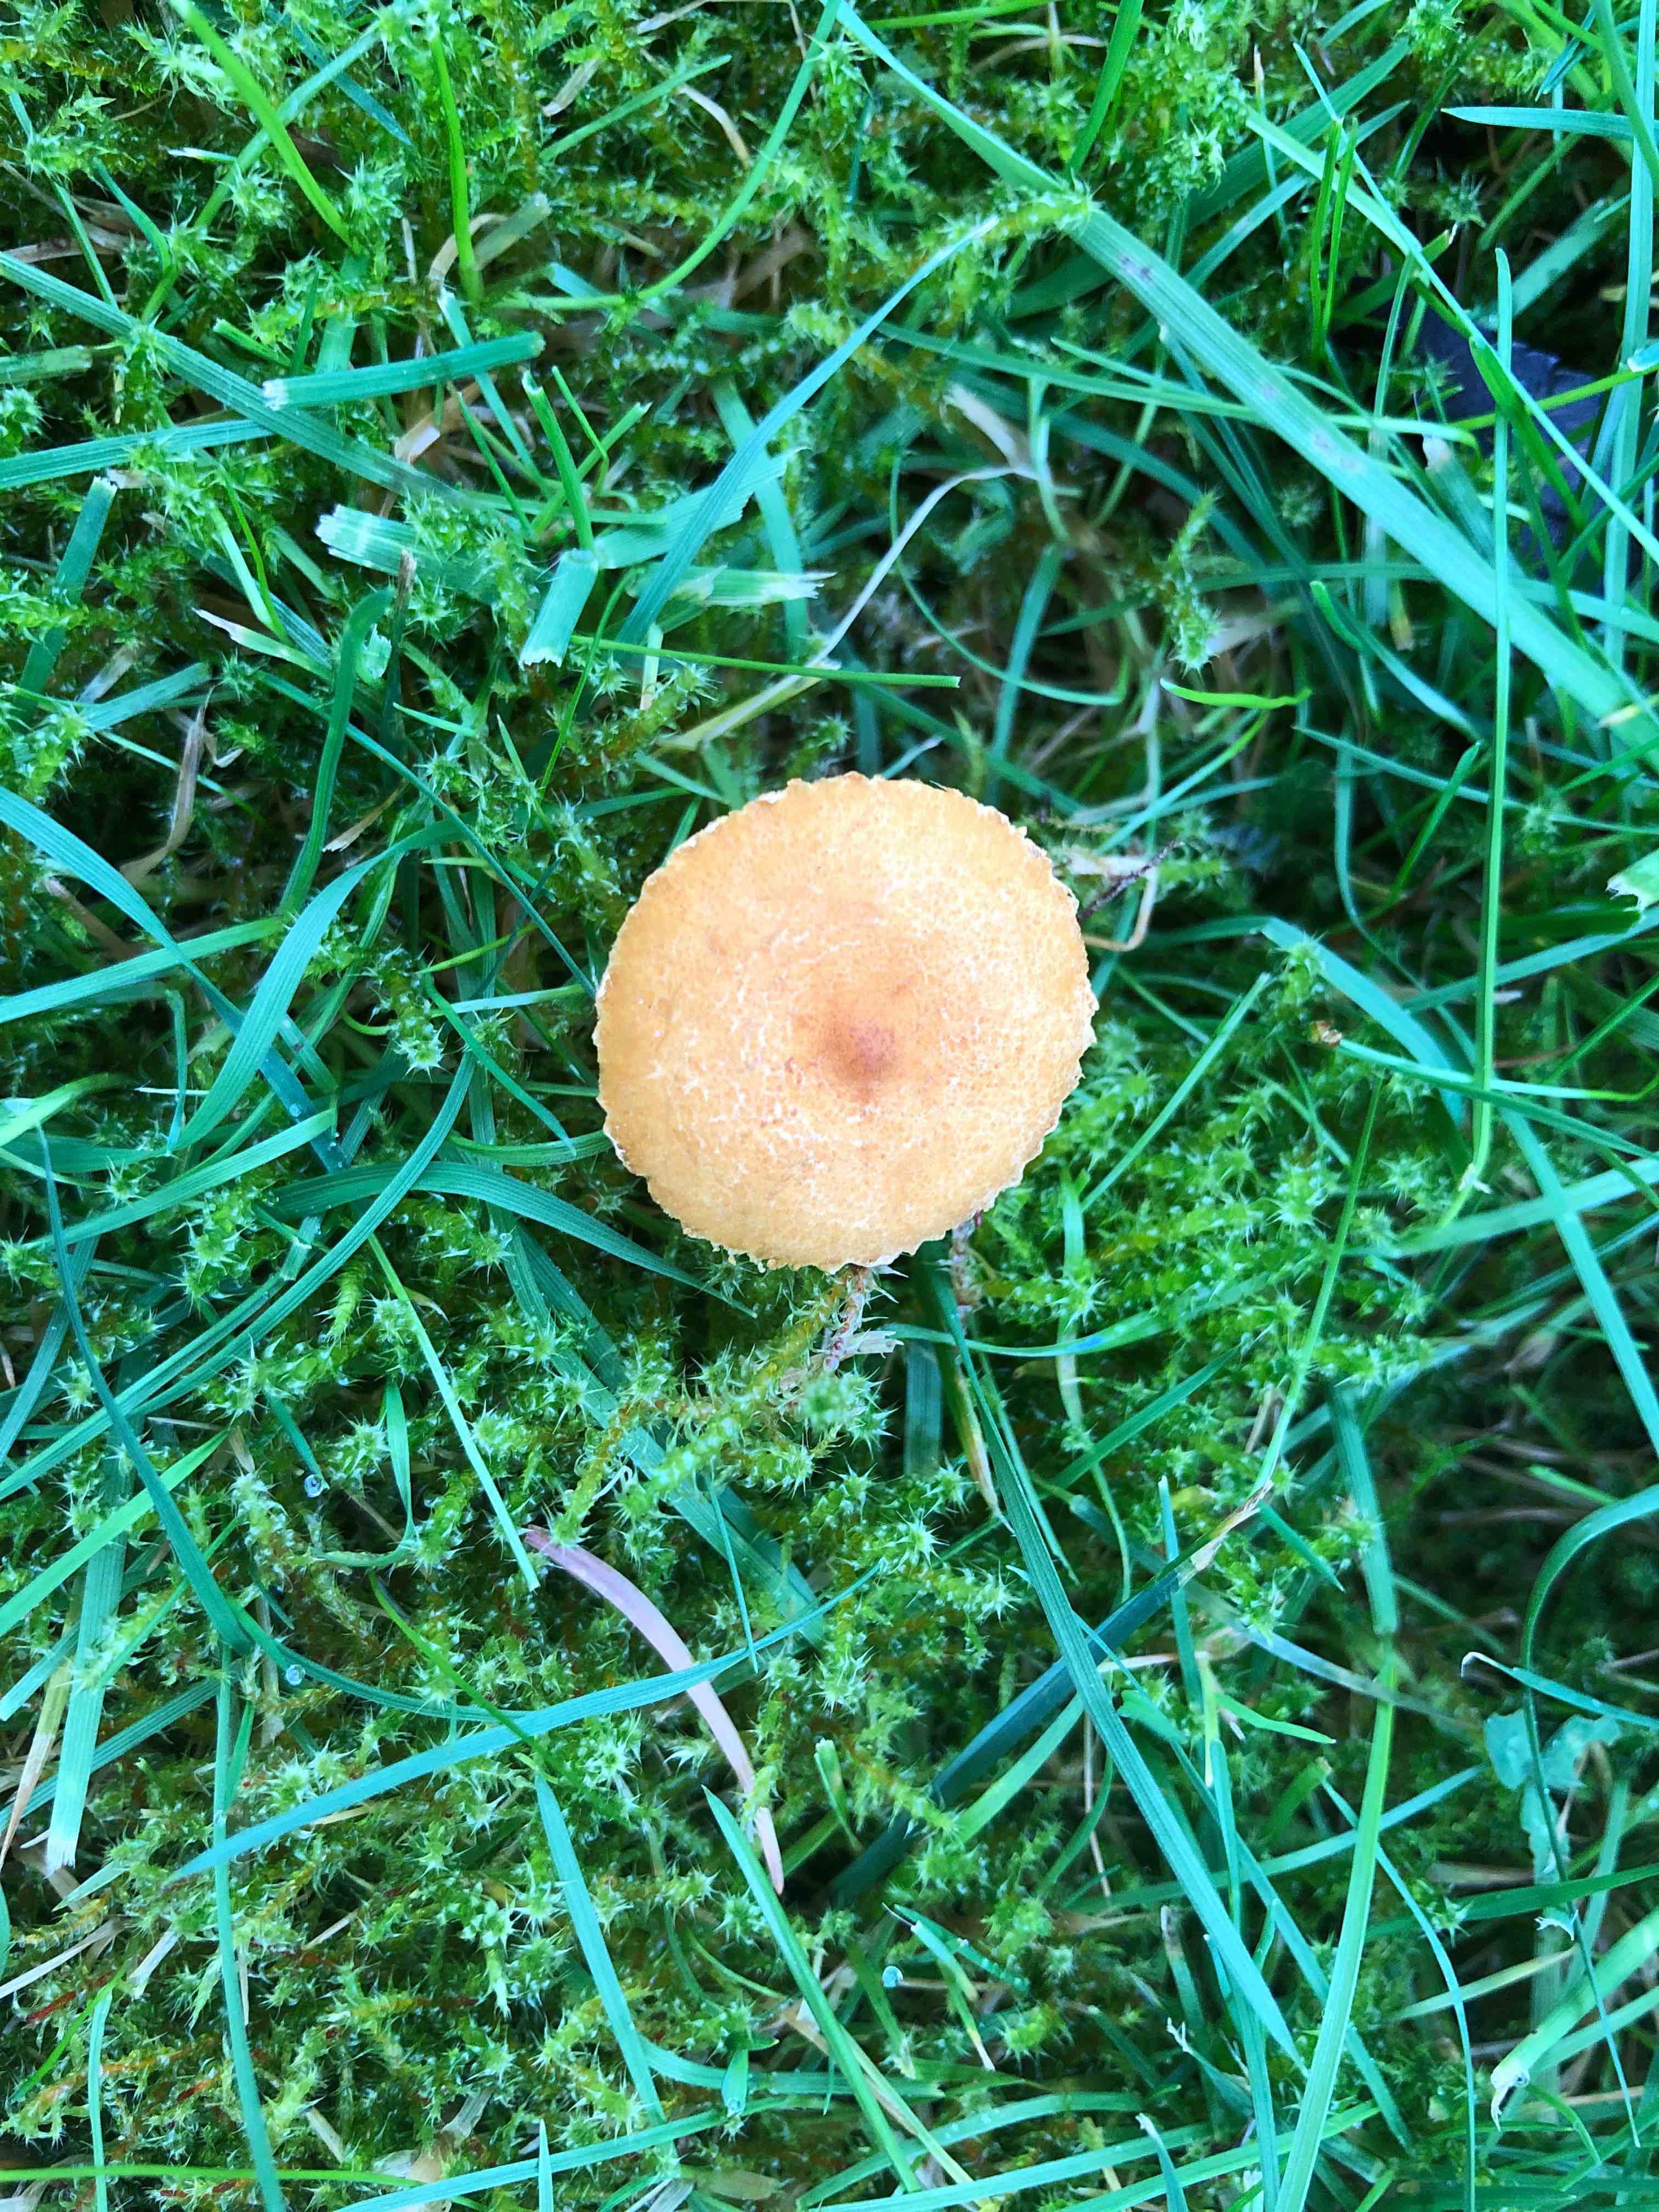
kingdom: Fungi
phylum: Basidiomycota
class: Agaricomycetes
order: Agaricales
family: Tricholomataceae
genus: Cystoderma
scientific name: Cystoderma amianthinum
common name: okkergul grynhat
